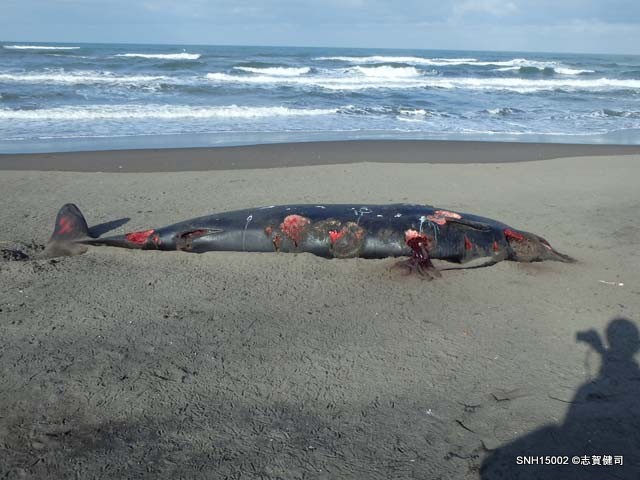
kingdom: Animalia
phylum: Chordata
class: Mammalia
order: Cetacea
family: Hyperoodontidae
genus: Mesoplodon
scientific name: Mesoplodon stejnegeri
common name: Stejneger's beaked whale
